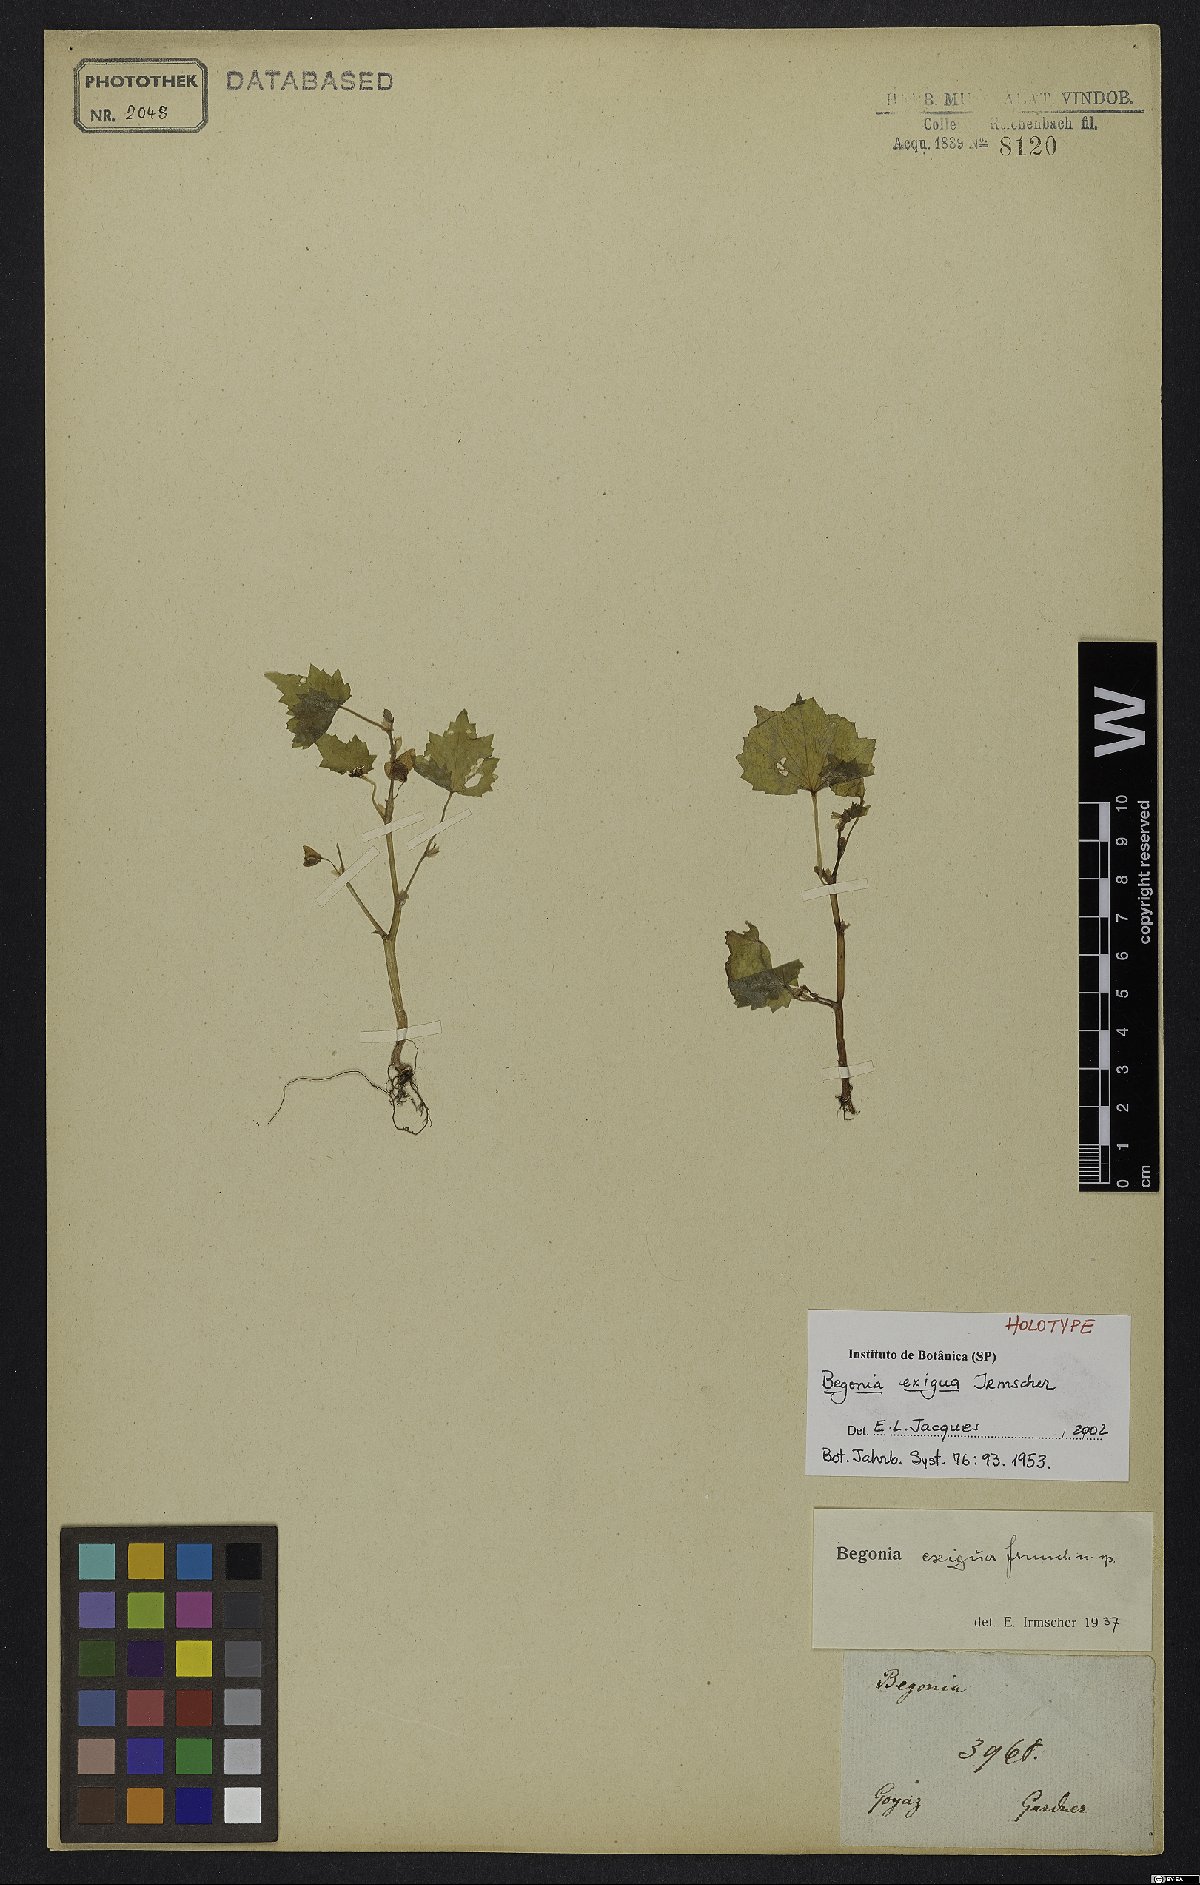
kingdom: Plantae
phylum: Tracheophyta
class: Magnoliopsida
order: Cucurbitales
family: Begoniaceae
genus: Begonia
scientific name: Begonia exigua
